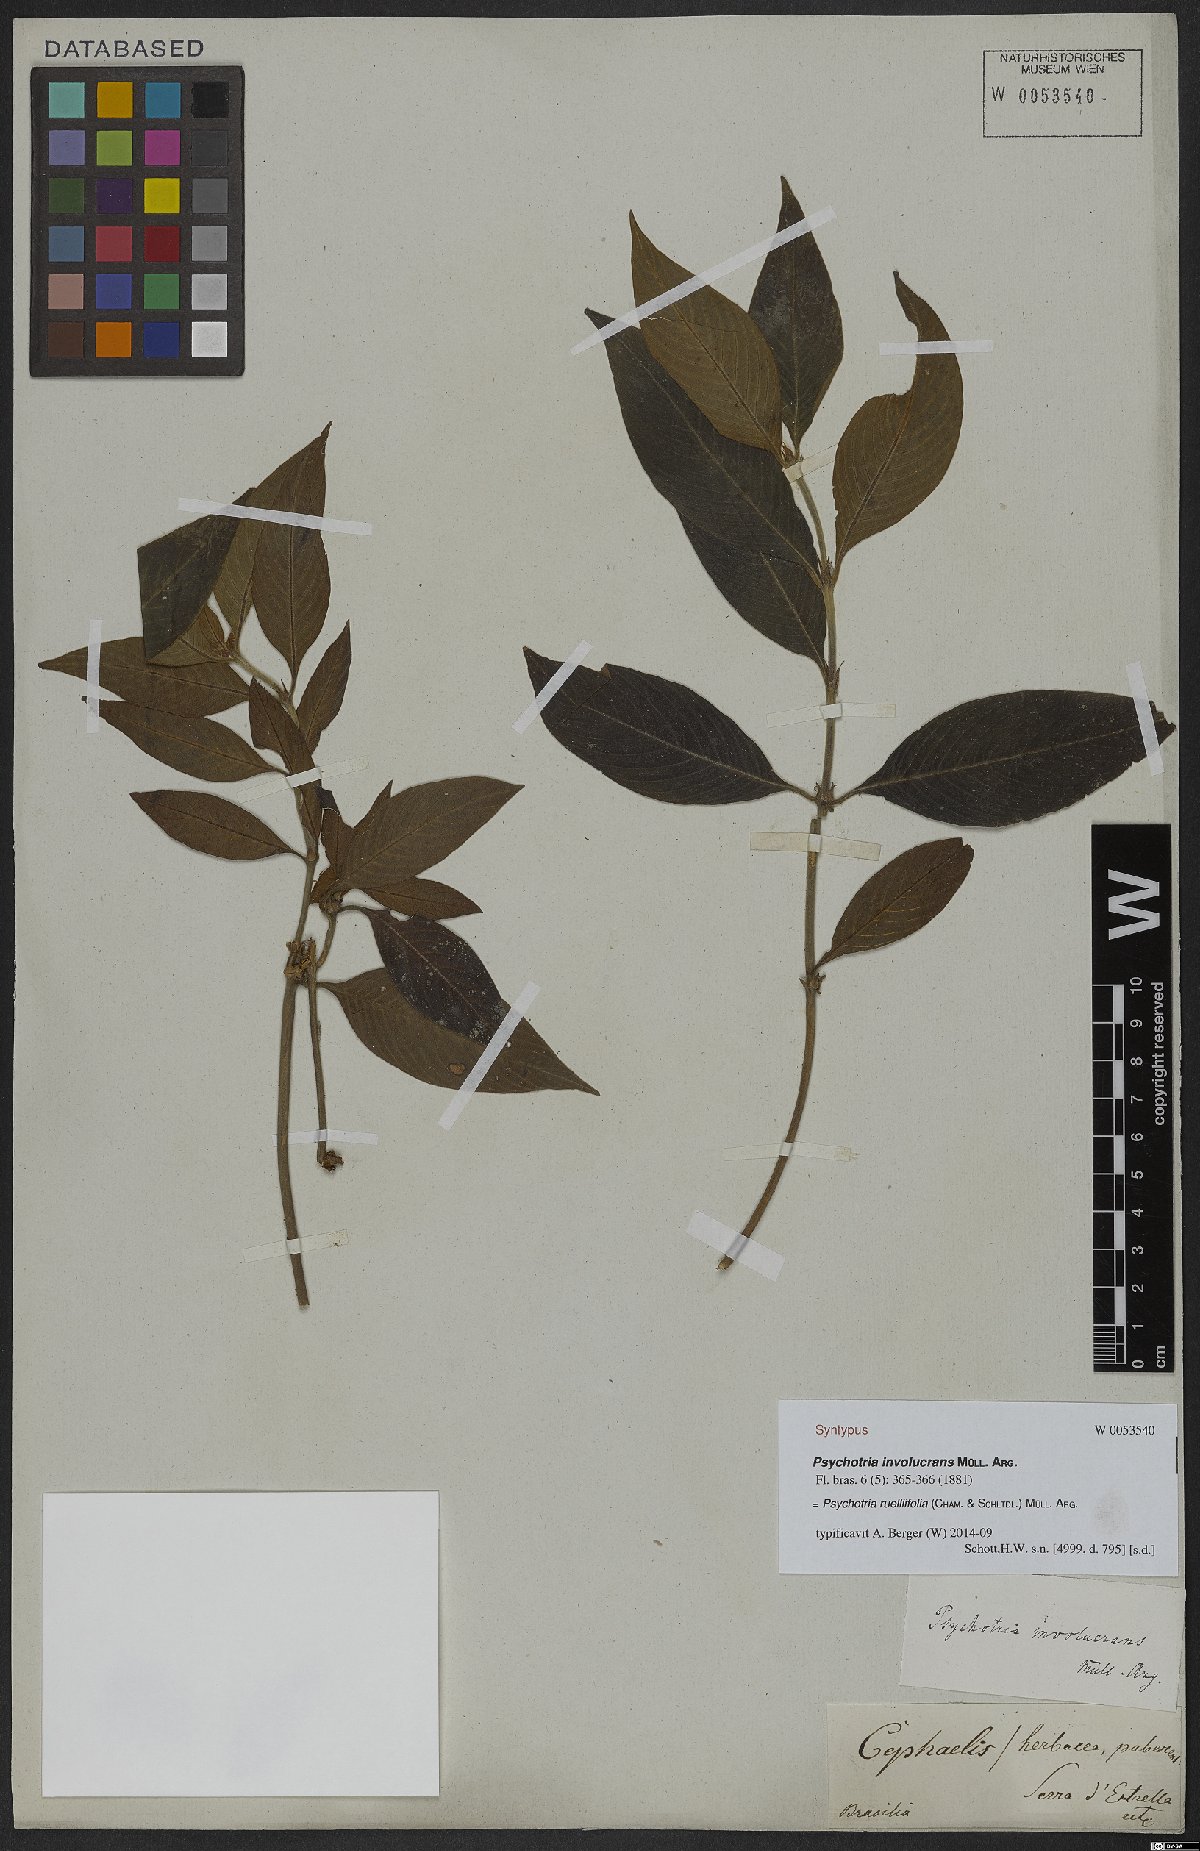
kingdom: Plantae
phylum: Tracheophyta
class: Magnoliopsida
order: Gentianales
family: Rubiaceae
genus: Palicourea
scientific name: Palicourea ruelliifolia
